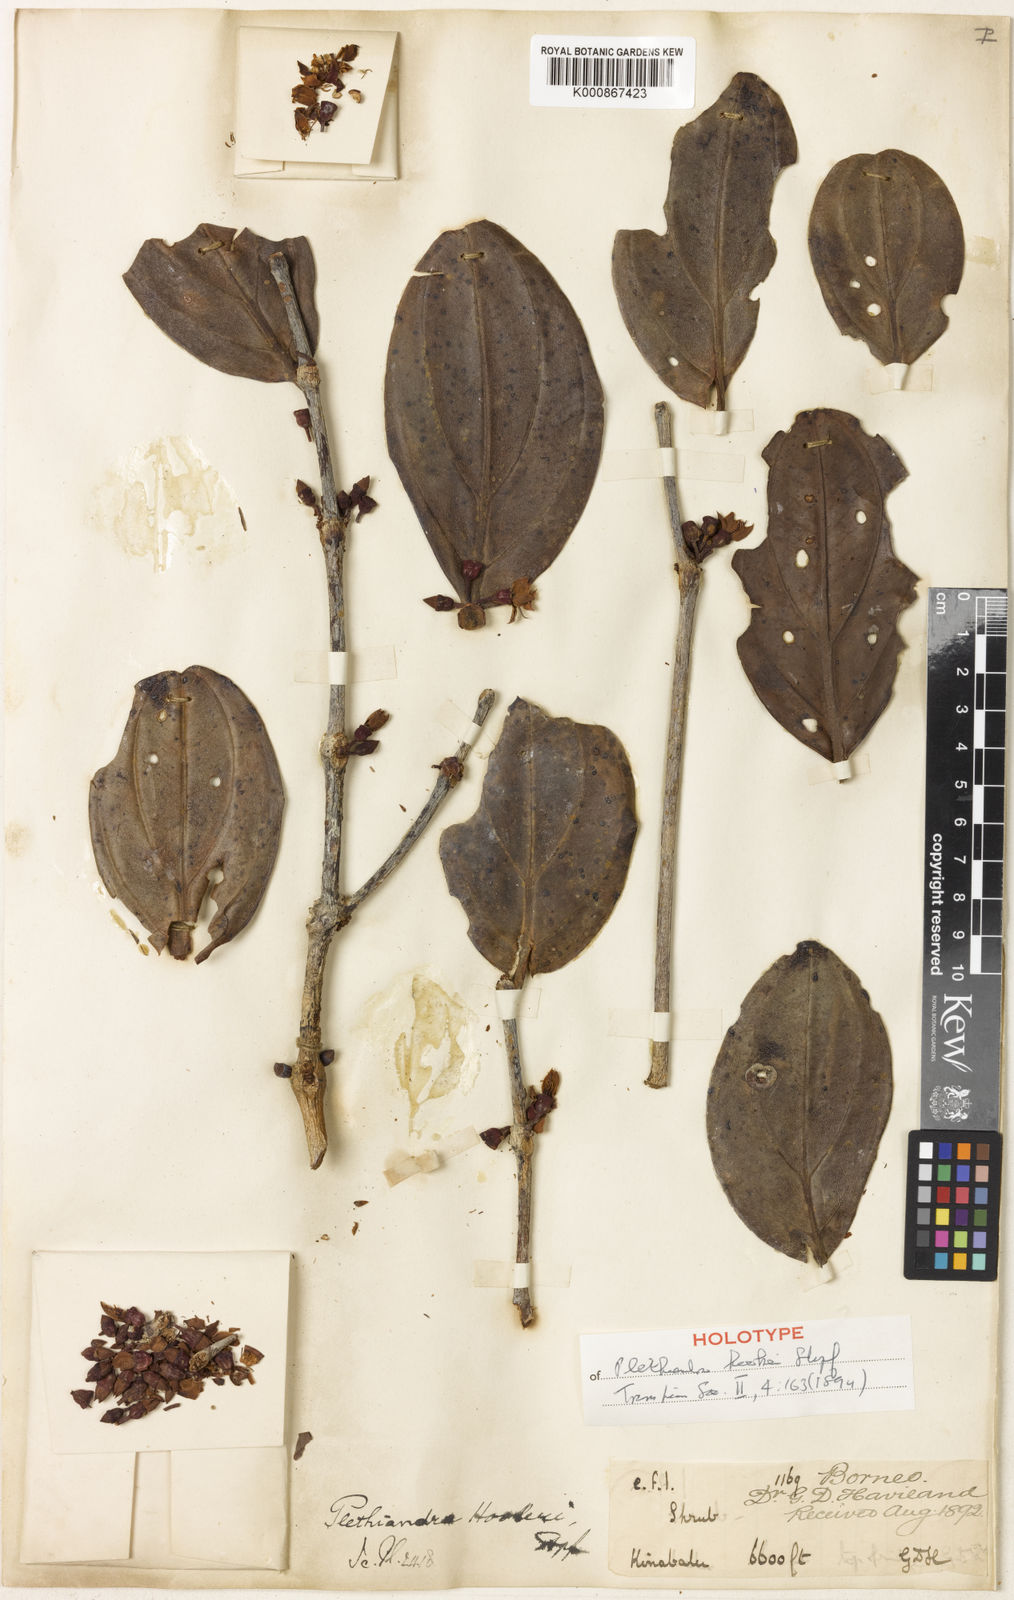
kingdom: Plantae
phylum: Tracheophyta
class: Magnoliopsida
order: Myrtales
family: Melastomataceae
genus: Plethiandra
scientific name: Plethiandra hookeri
